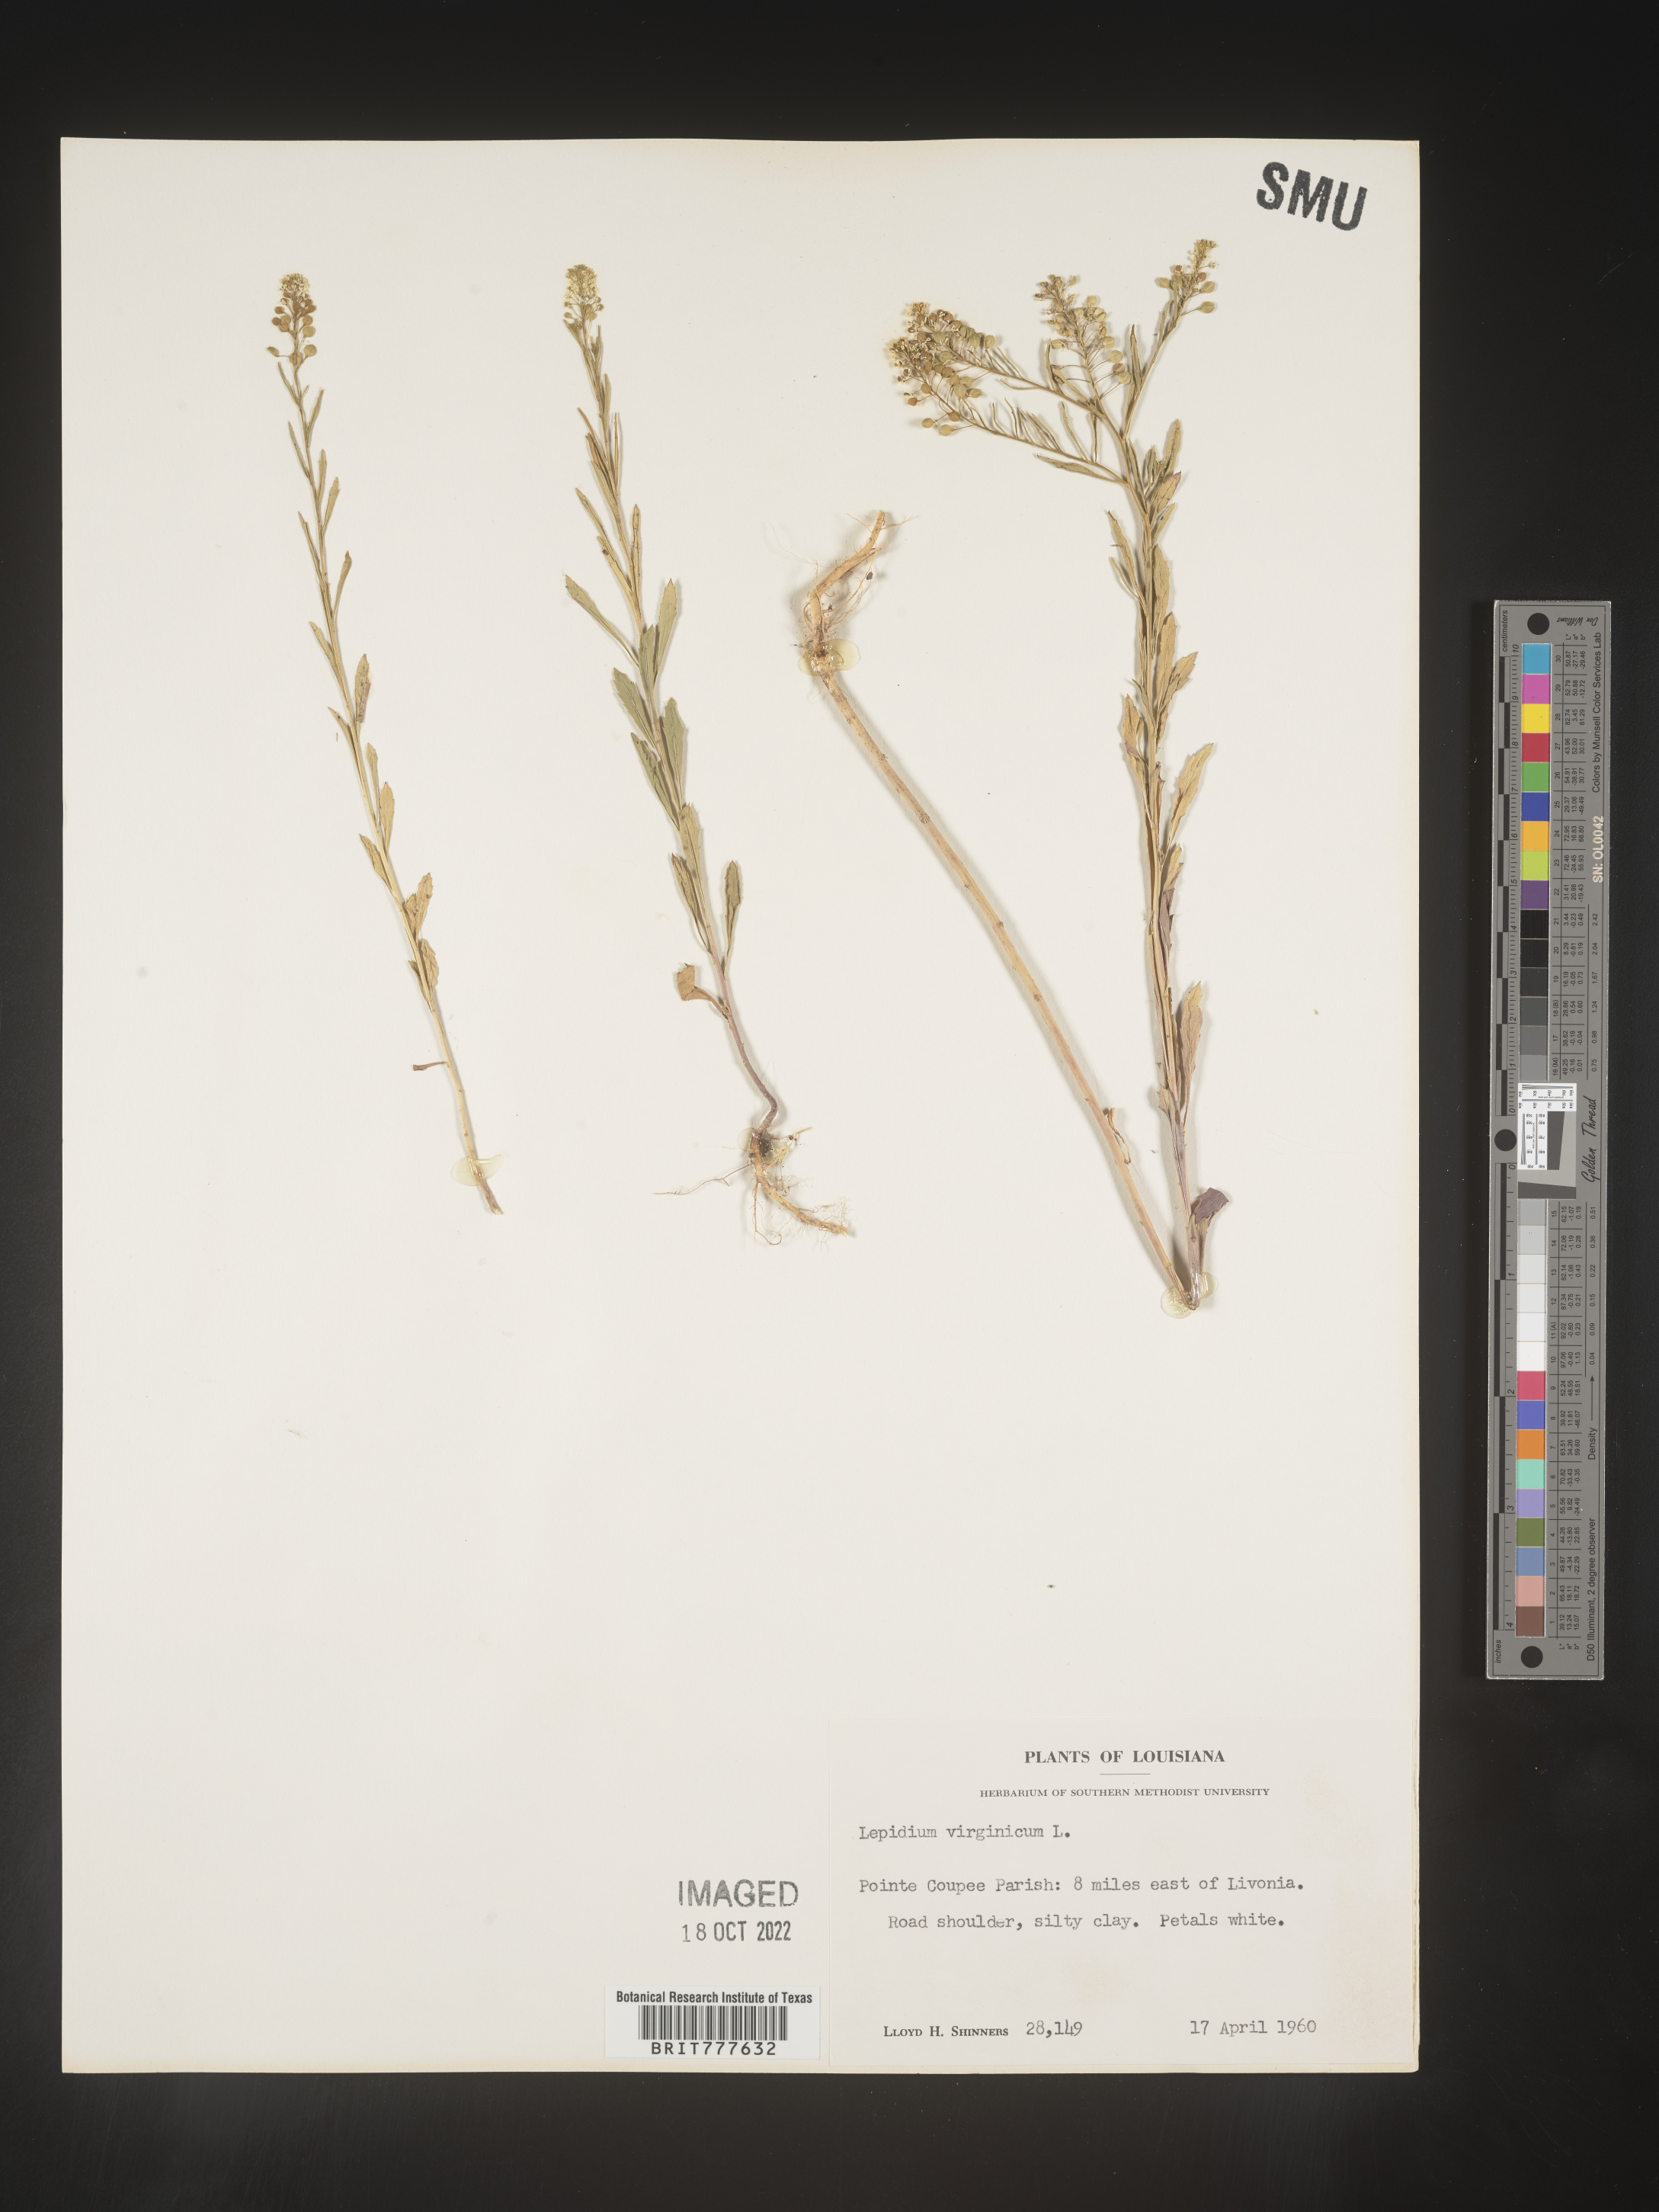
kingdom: Plantae
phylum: Tracheophyta
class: Magnoliopsida
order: Brassicales
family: Brassicaceae
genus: Lepidium
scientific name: Lepidium virginicum
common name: Least pepperwort
